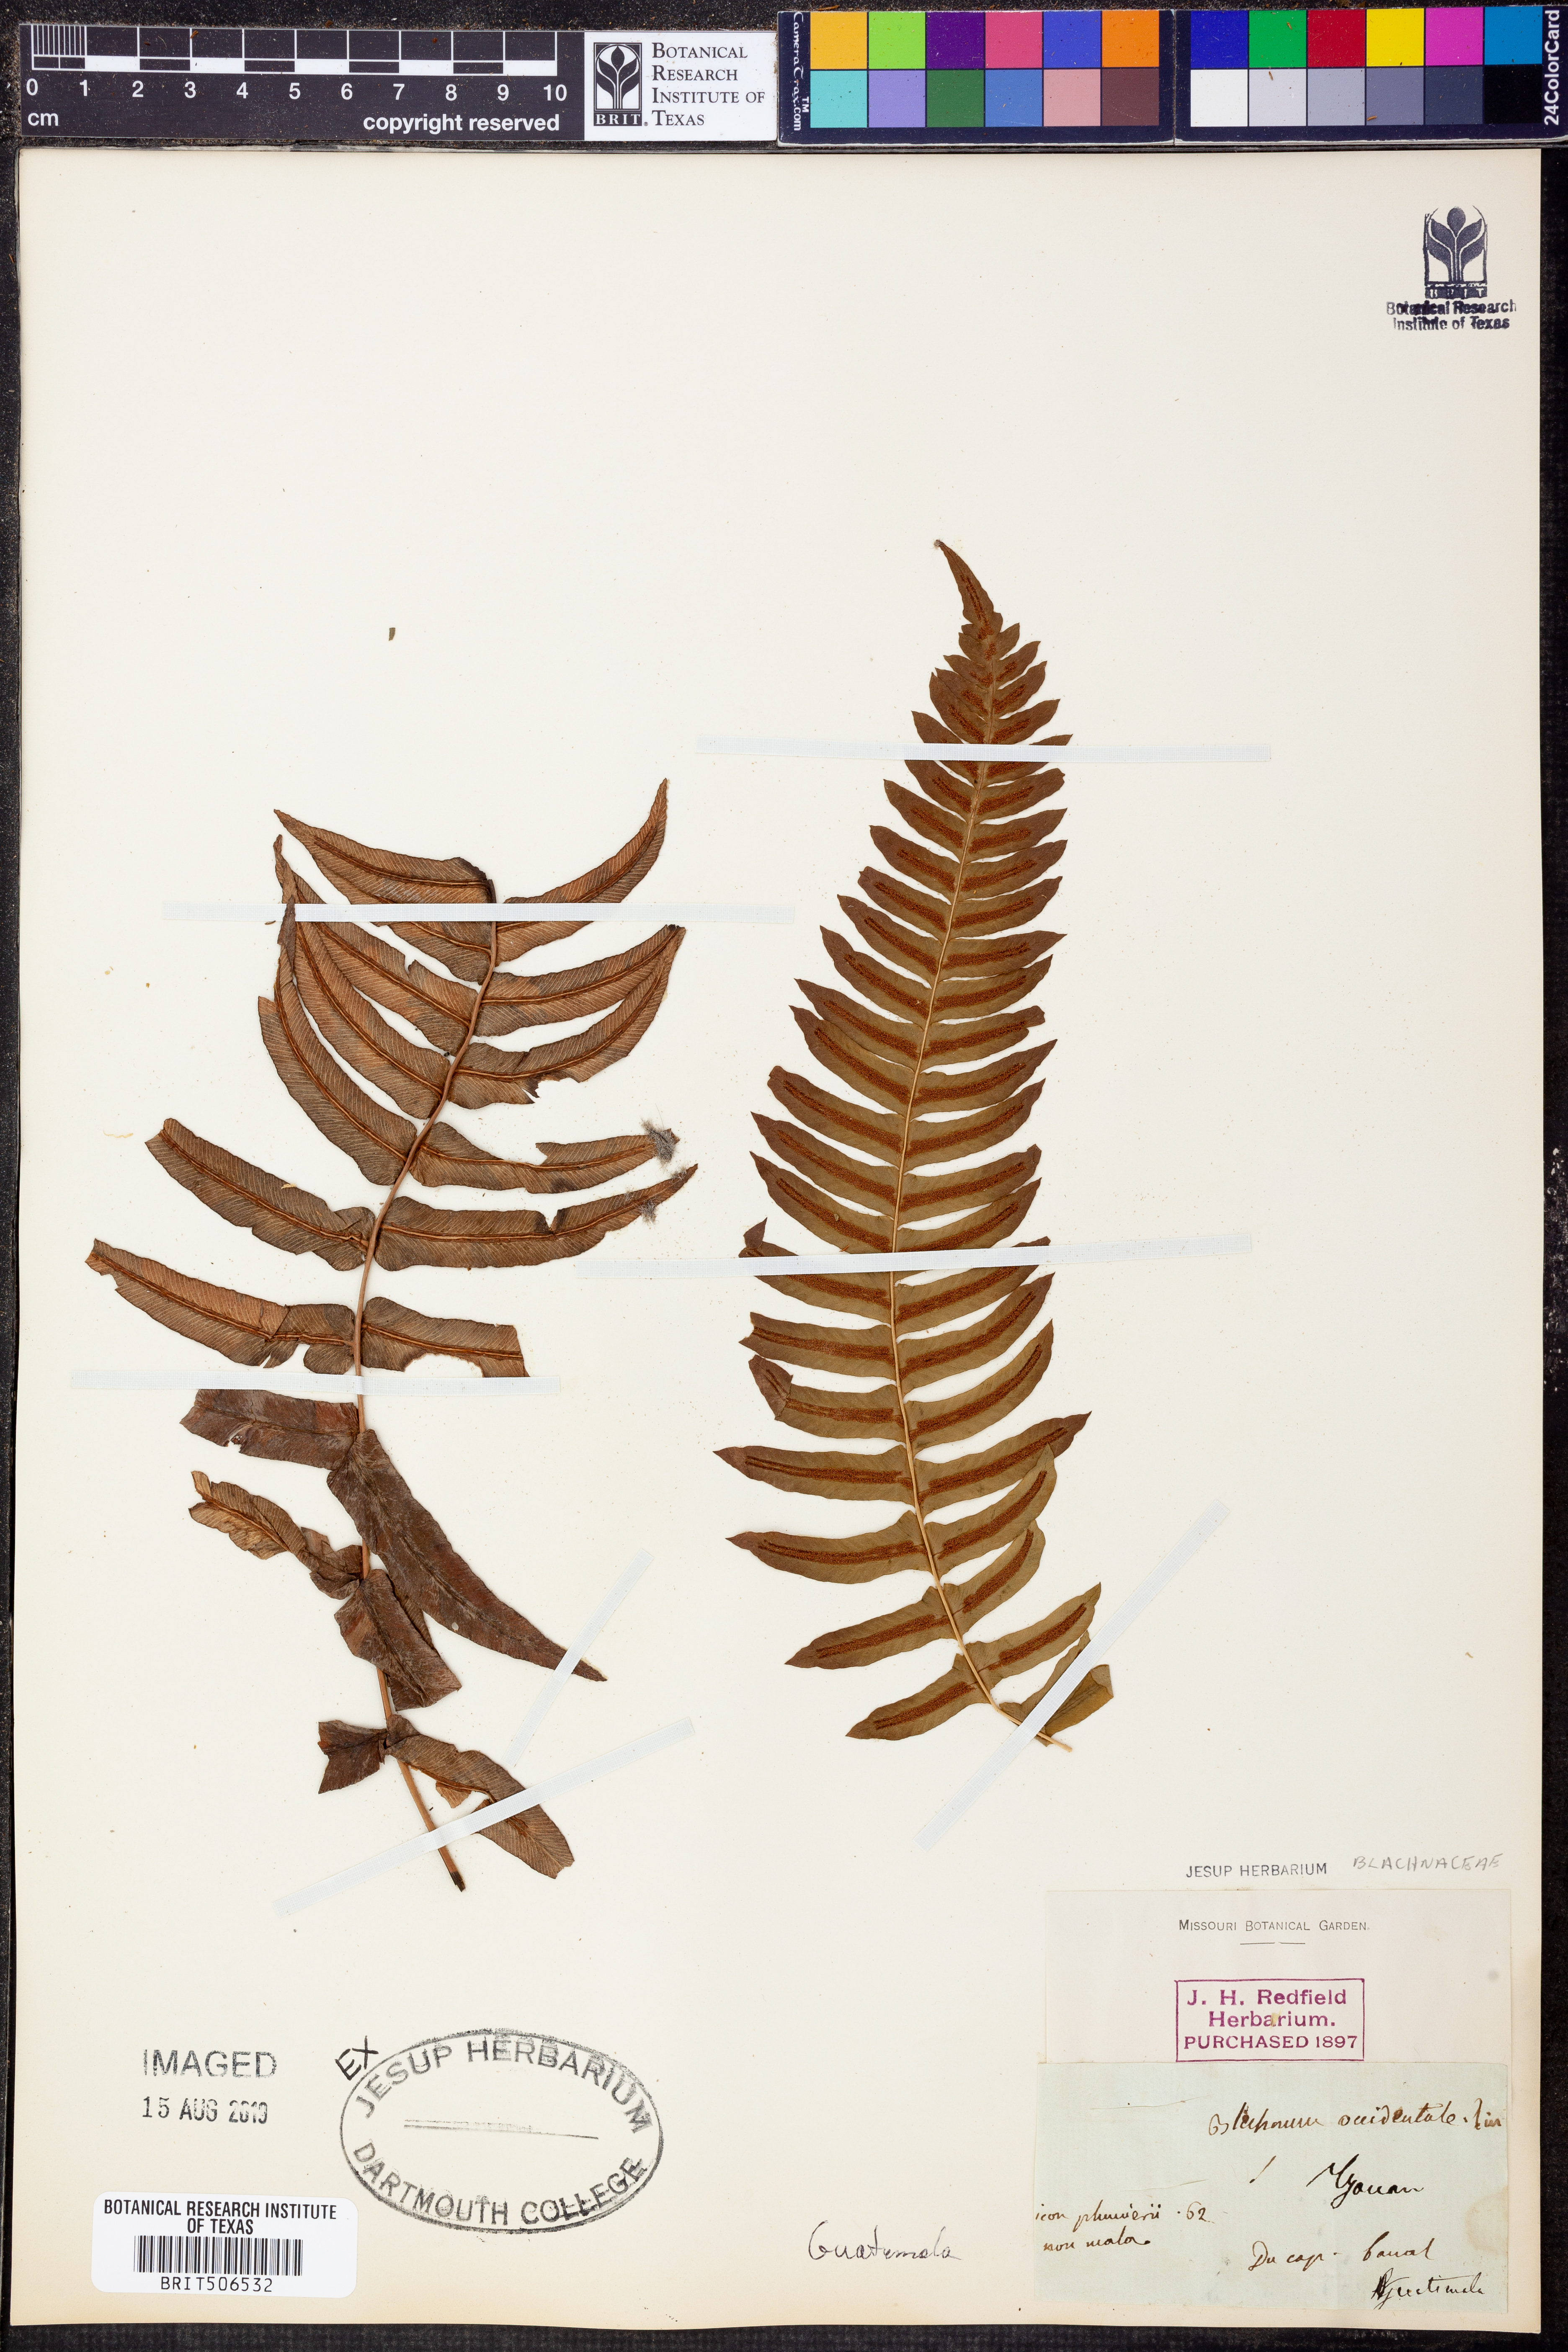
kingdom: Plantae
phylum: Tracheophyta
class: Polypodiopsida
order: Polypodiales
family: Blechnaceae
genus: Blechnum
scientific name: Blechnum occidentale
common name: Hammock fern
